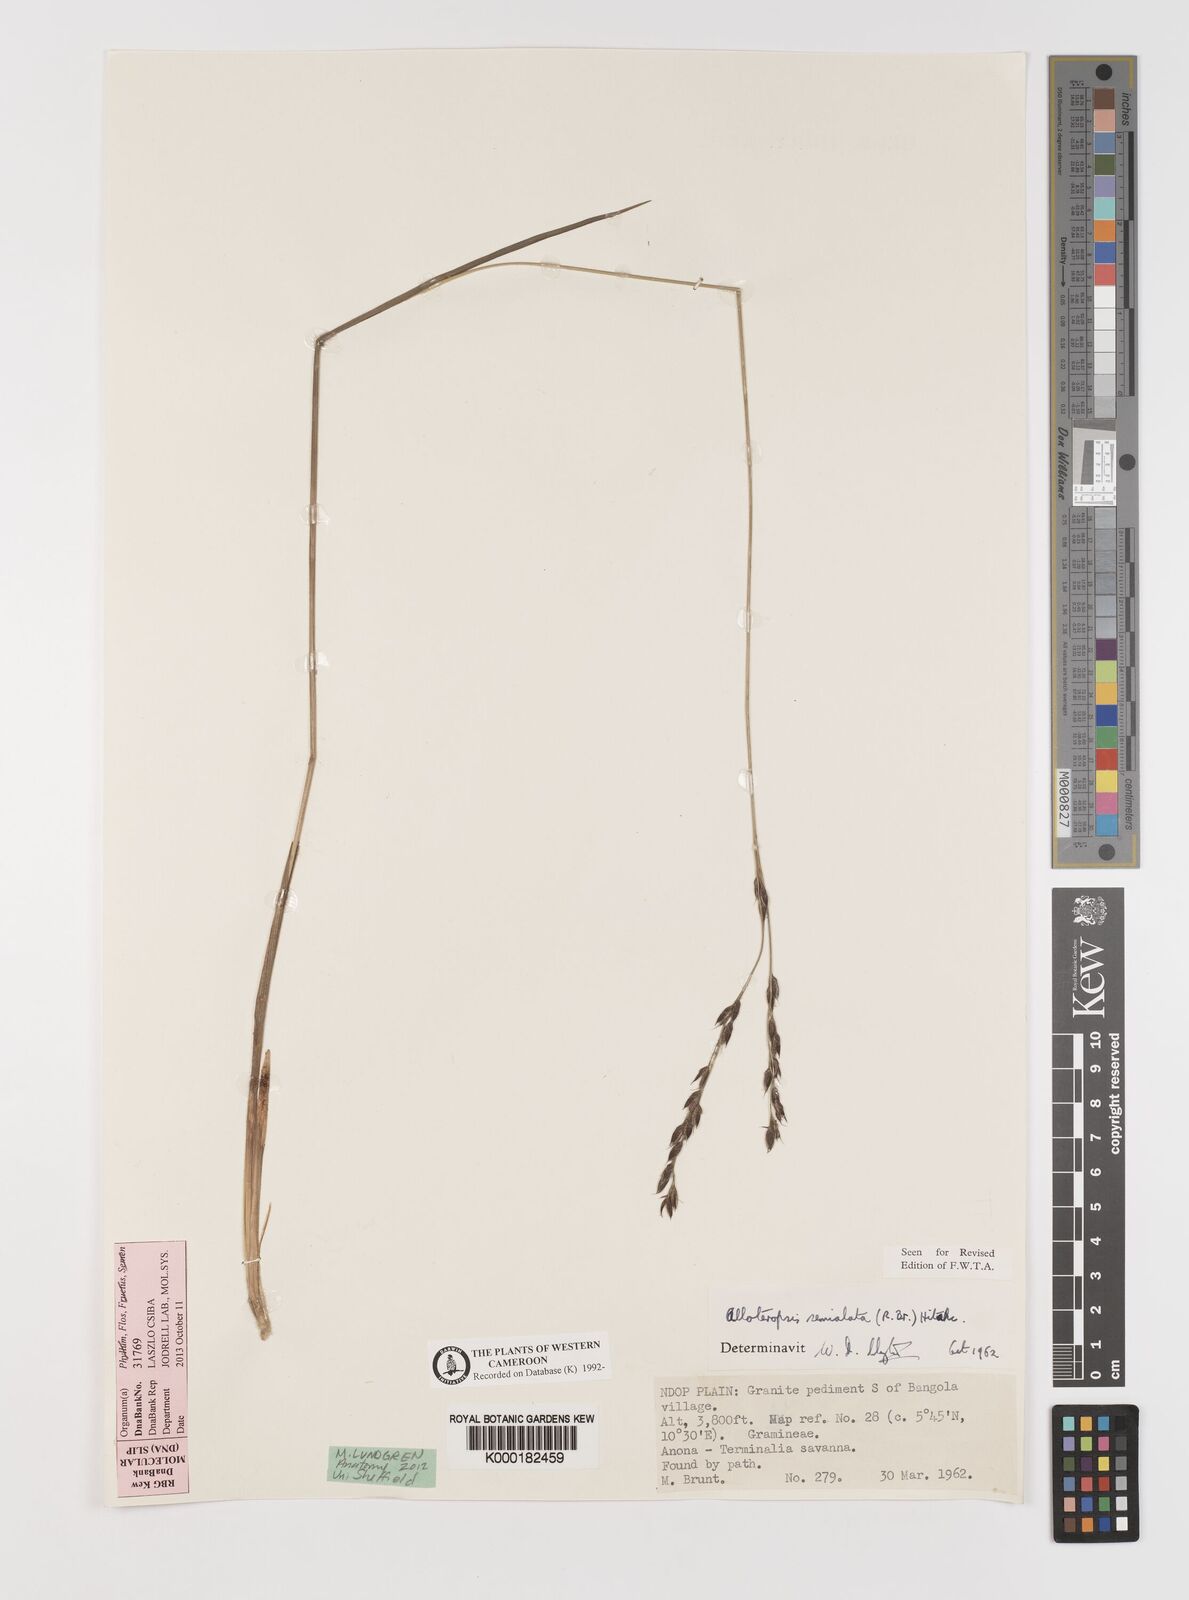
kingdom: Plantae
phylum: Tracheophyta
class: Liliopsida
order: Poales
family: Poaceae
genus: Alloteropsis
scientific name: Alloteropsis semialata
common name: Cockatoo grass
